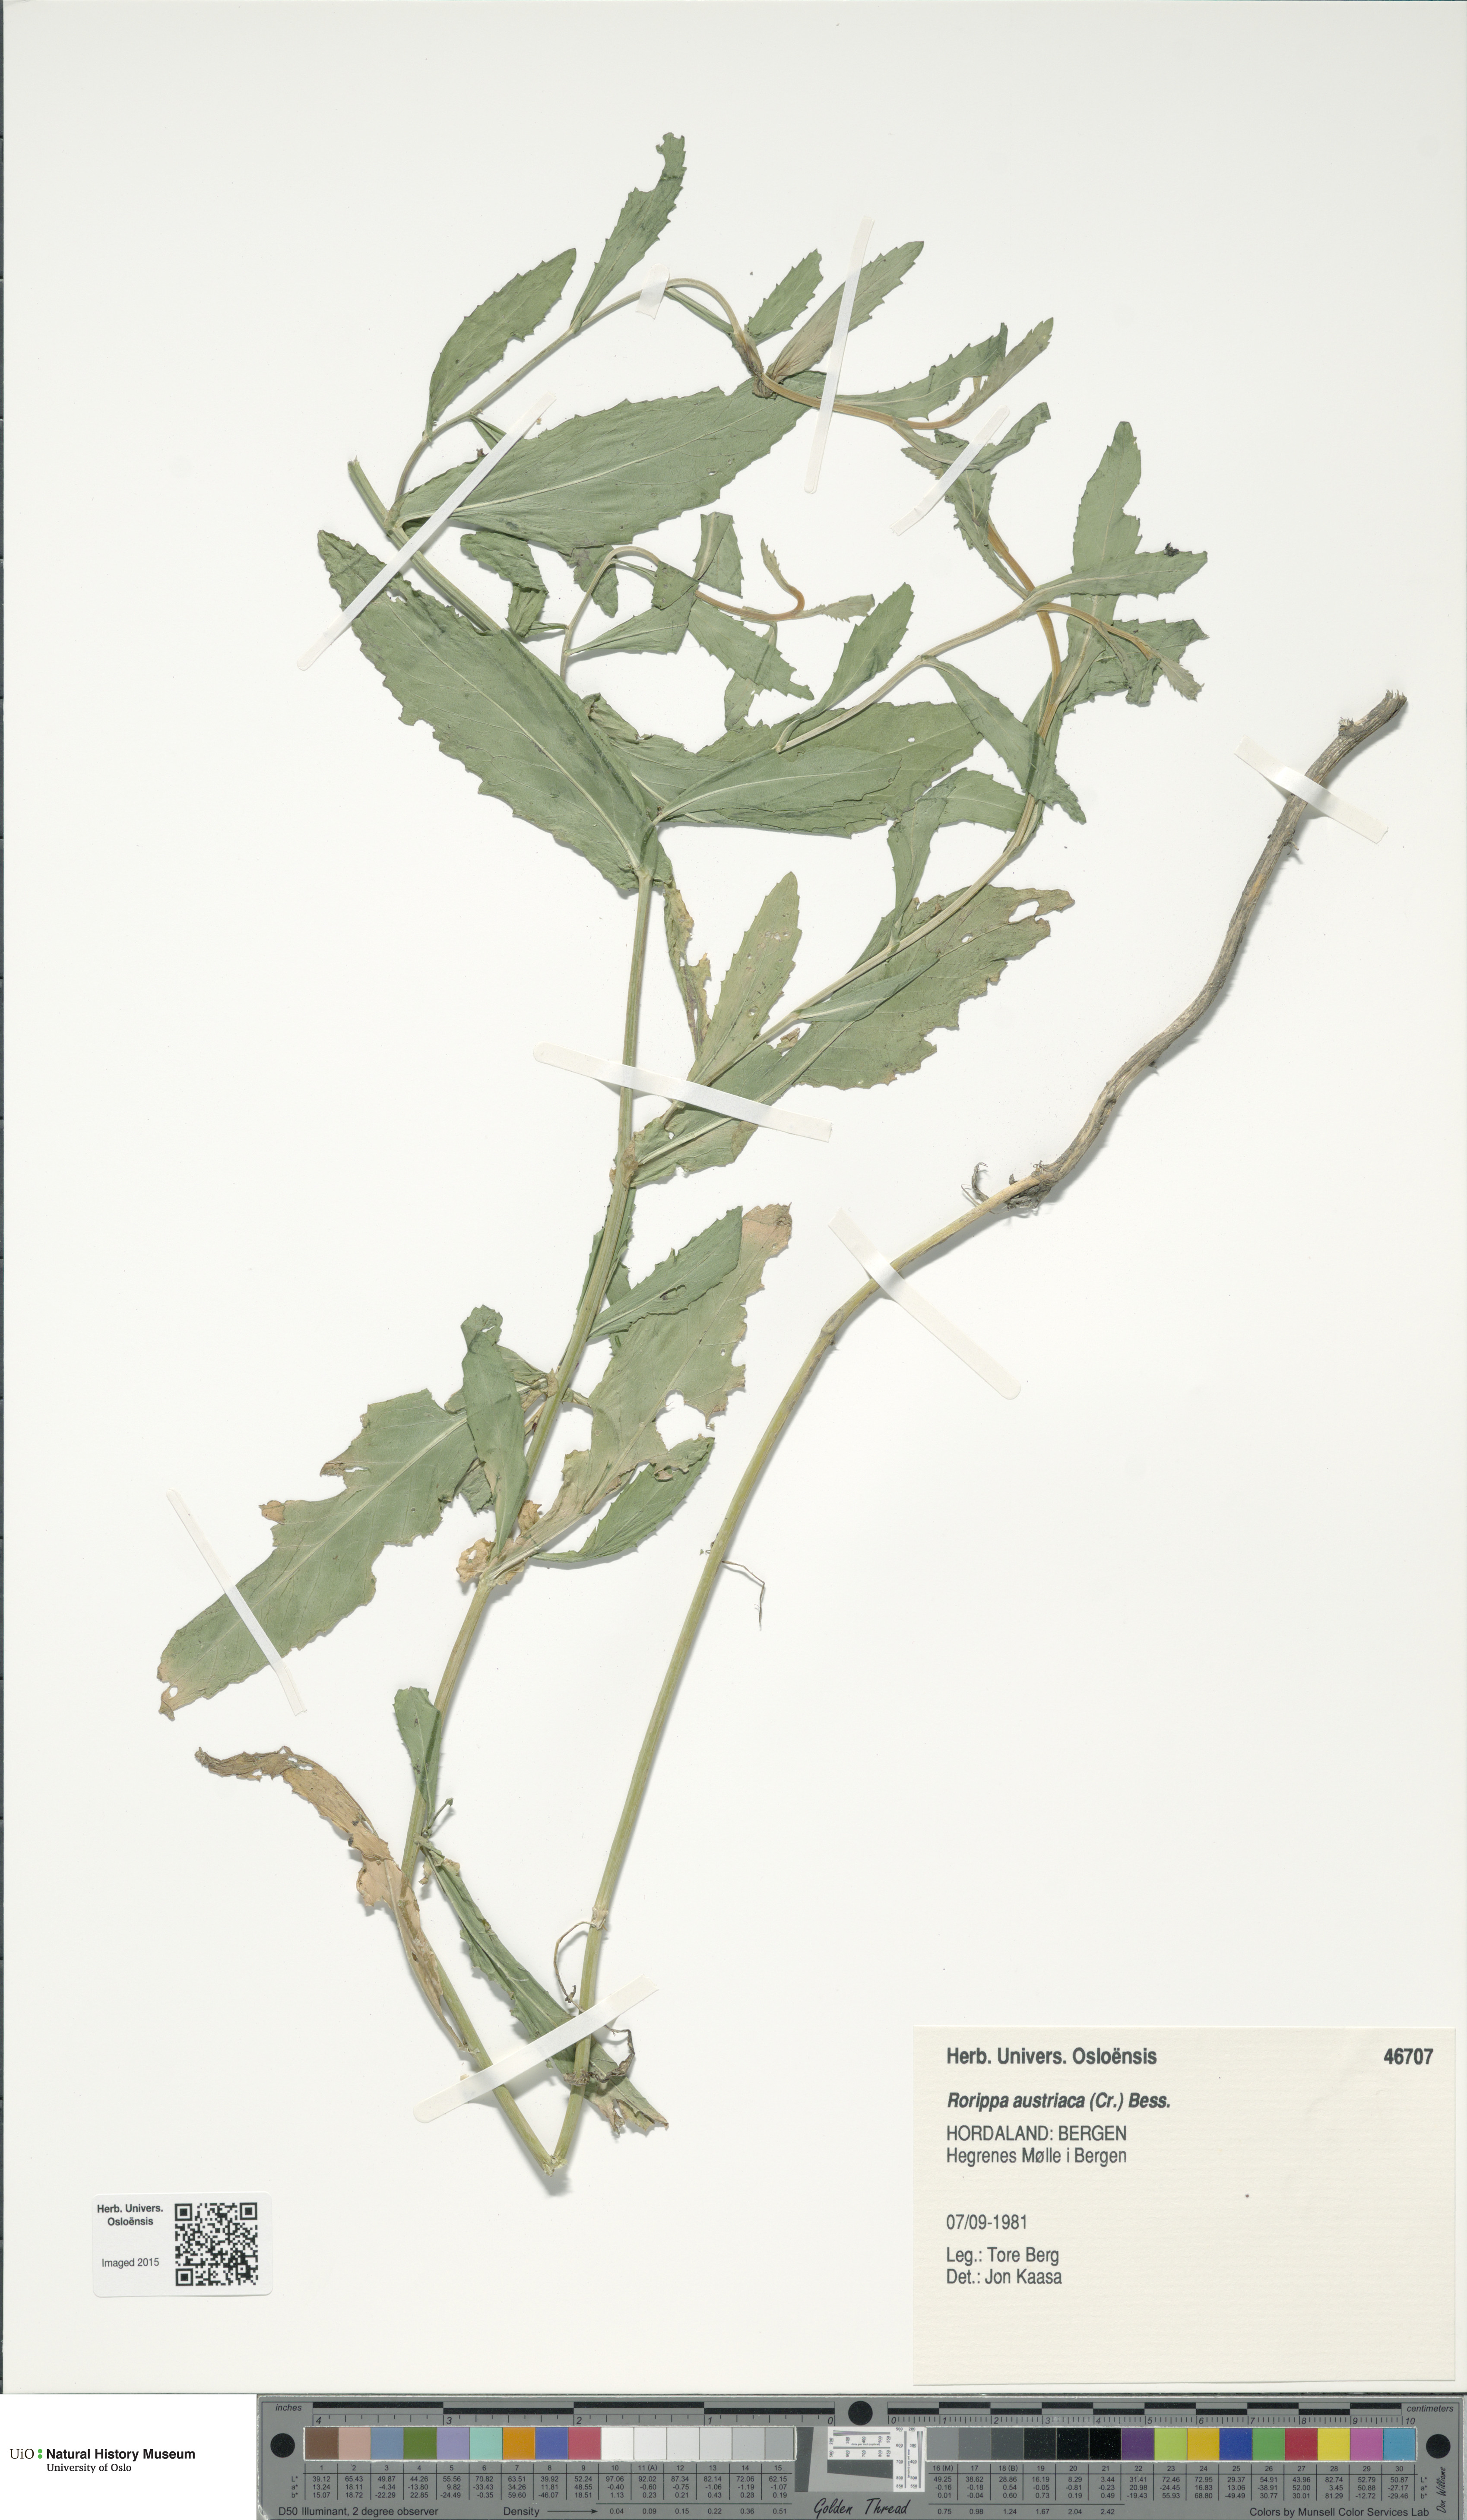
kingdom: Plantae
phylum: Tracheophyta
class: Magnoliopsida
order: Brassicales
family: Brassicaceae
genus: Rorippa
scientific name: Rorippa austriaca
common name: Austrian yellow-cress
